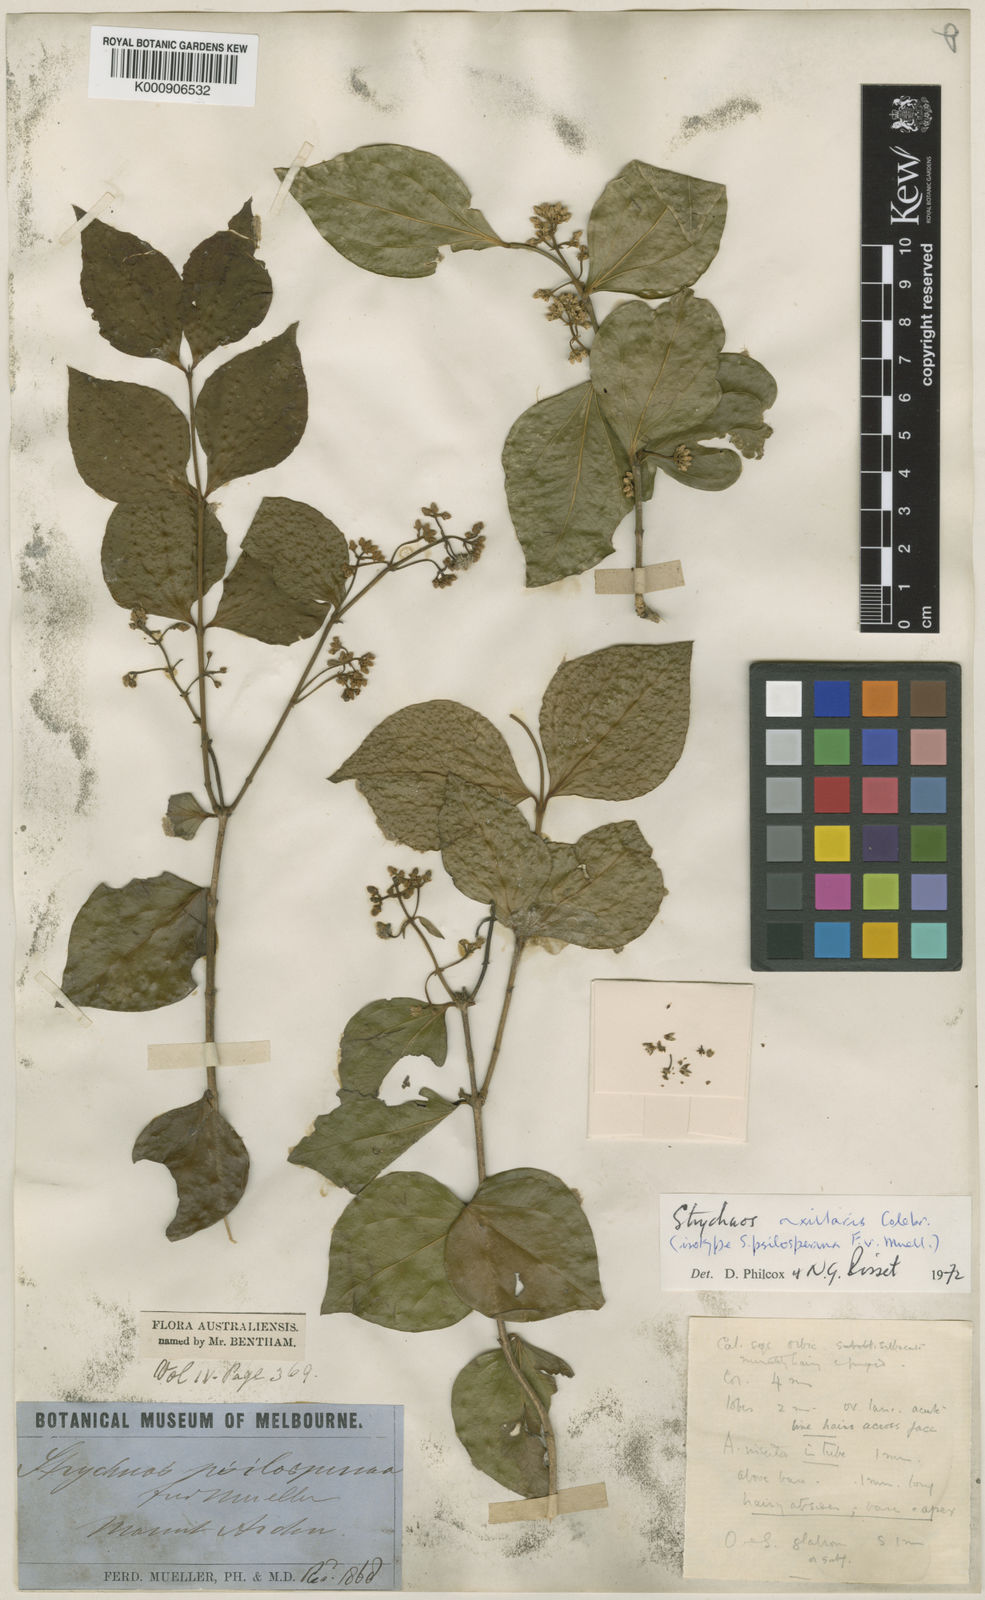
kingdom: Plantae
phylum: Tracheophyta
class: Magnoliopsida
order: Gentianales
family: Loganiaceae
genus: Strychnos
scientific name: Strychnos axillaris
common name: Strychninebush
